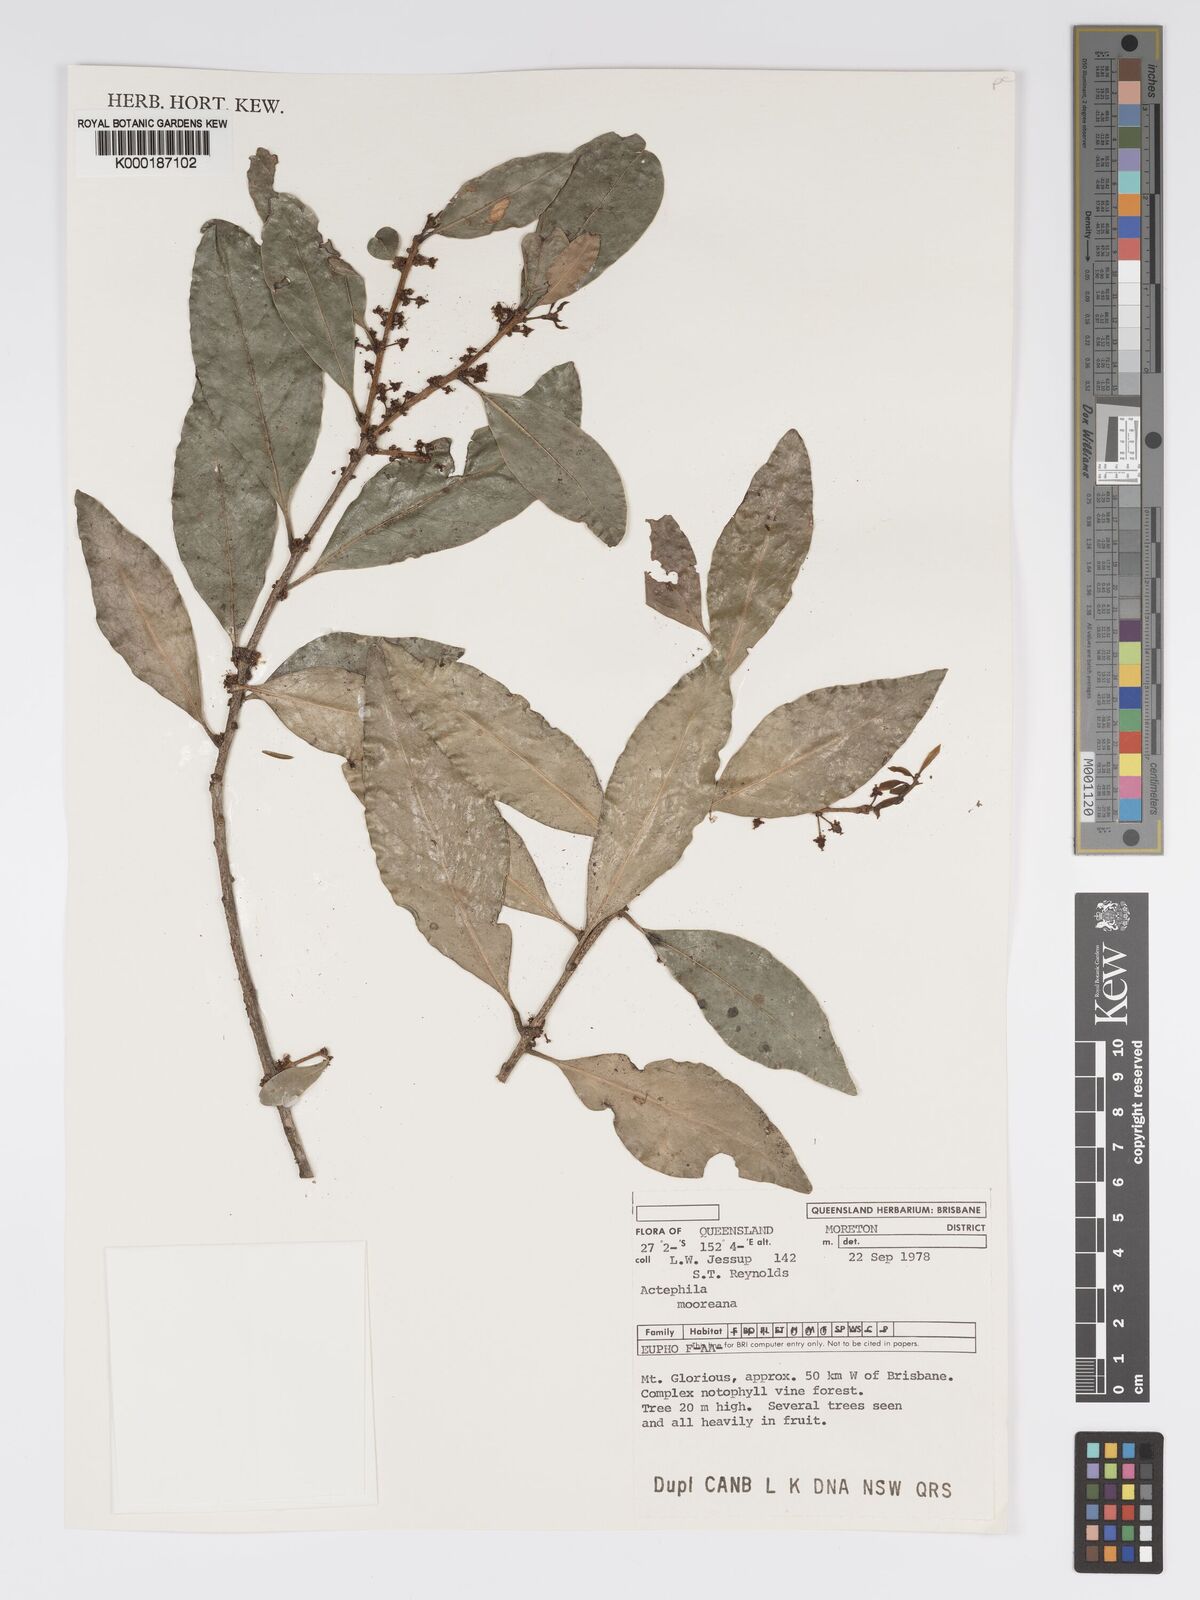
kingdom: Plantae
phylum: Tracheophyta
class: Magnoliopsida
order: Malpighiales
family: Phyllanthaceae
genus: Actephila
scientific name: Actephila lindleyi
